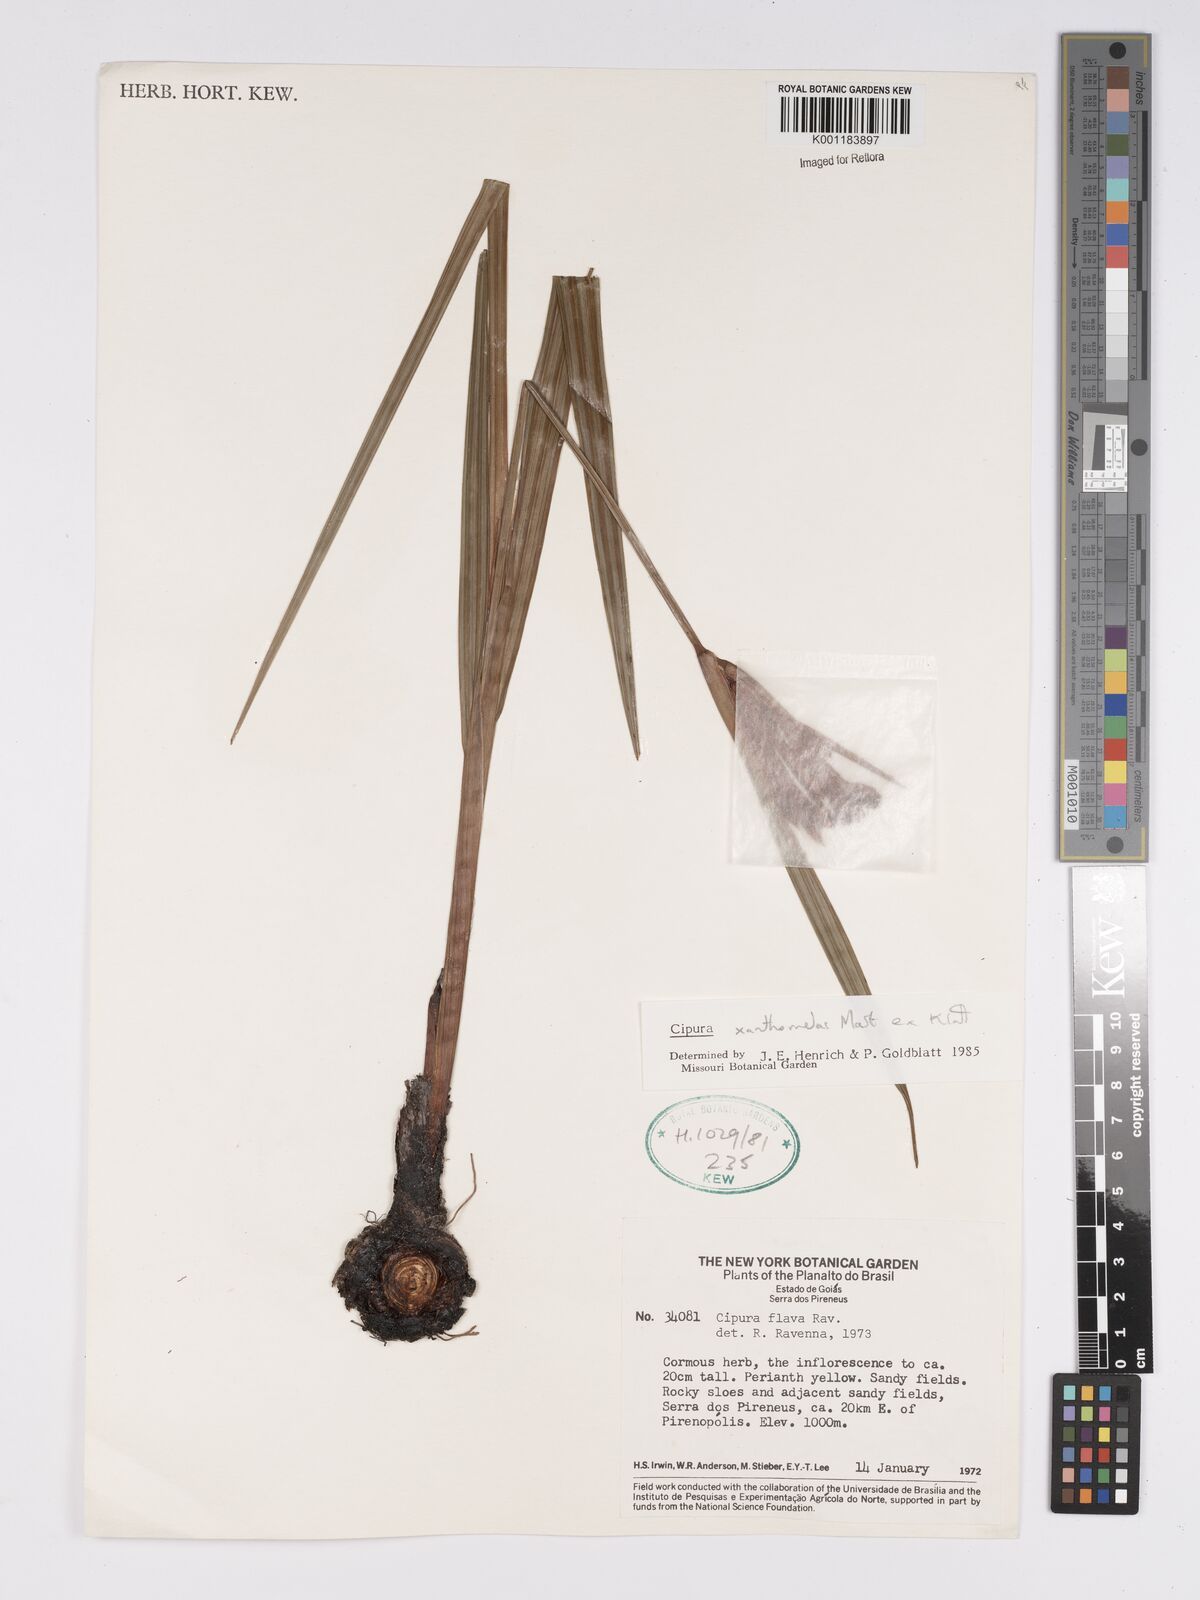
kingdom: Plantae
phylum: Tracheophyta
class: Liliopsida
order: Asparagales
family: Iridaceae
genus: Cipura
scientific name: Cipura xanthomelas
